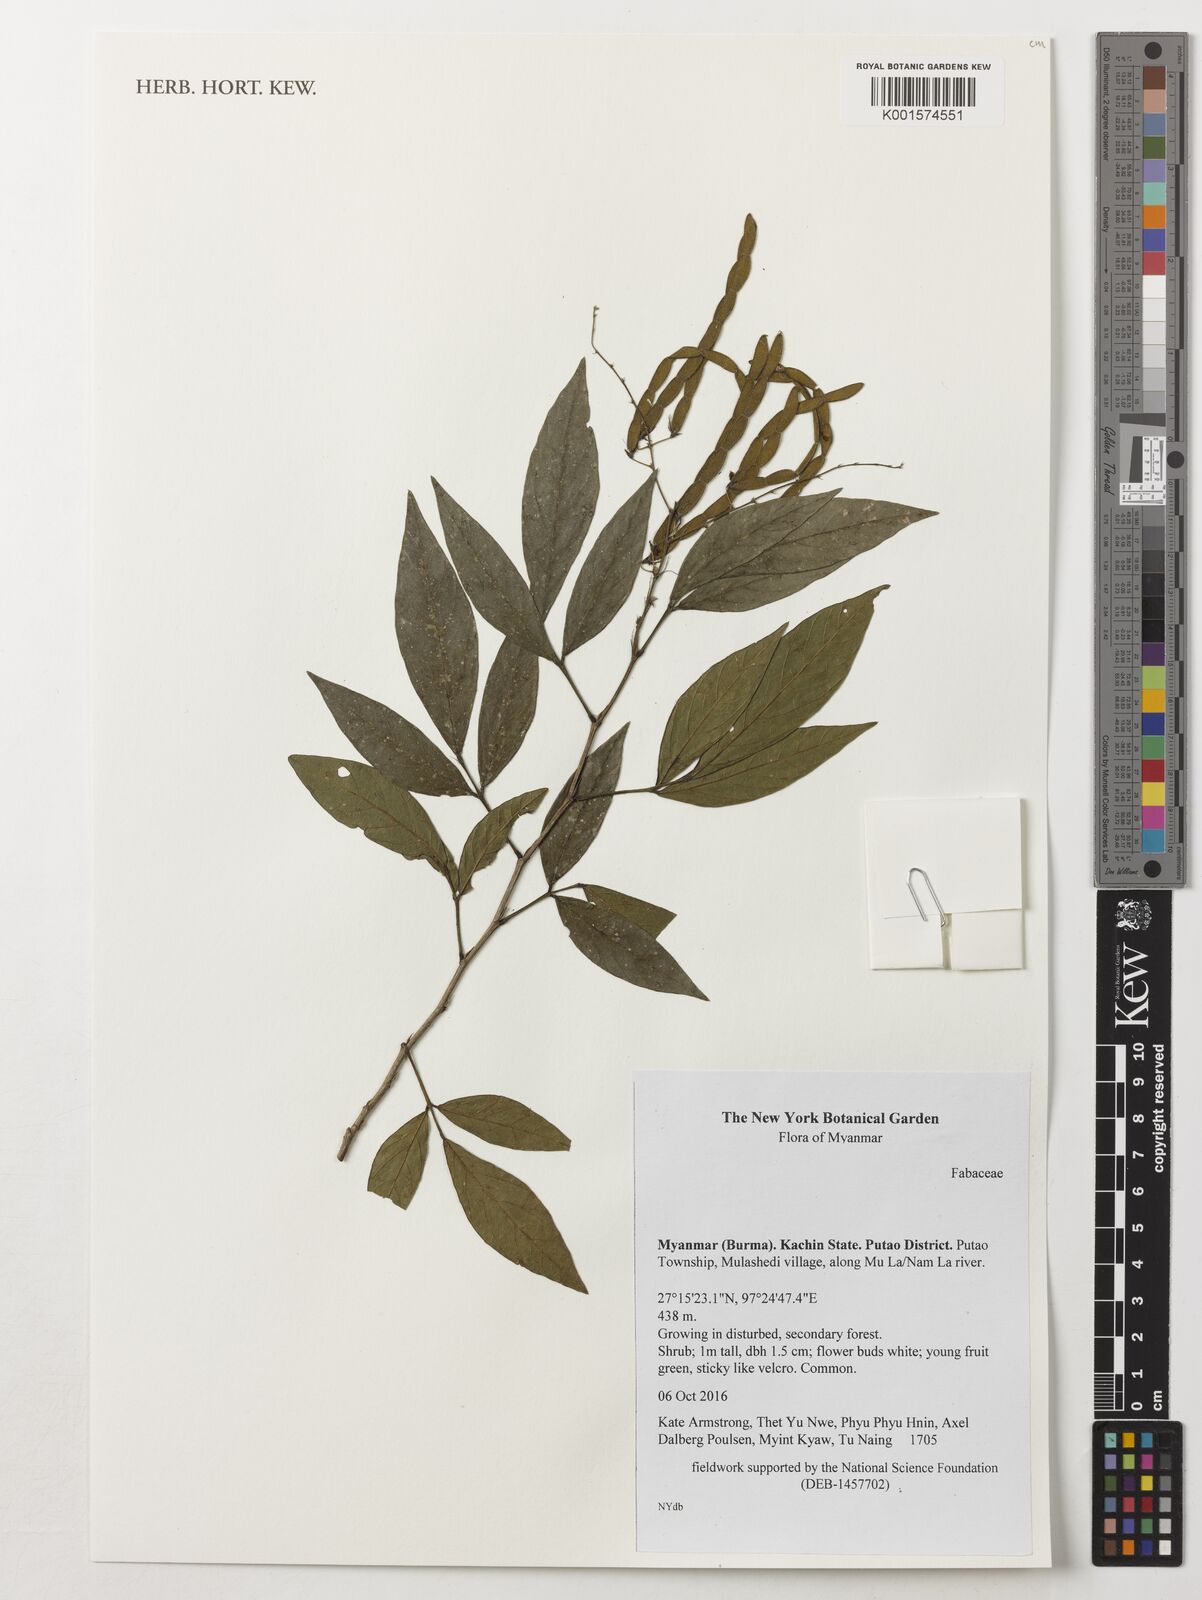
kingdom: Plantae
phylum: Tracheophyta
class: Magnoliopsida
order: Fabales
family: Fabaceae
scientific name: Fabaceae
